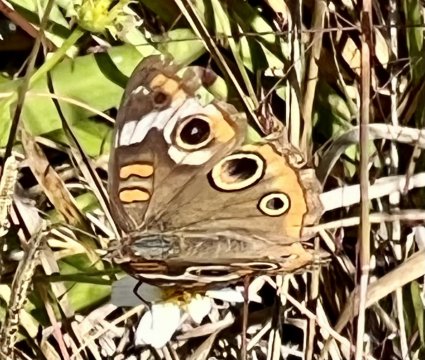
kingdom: Animalia
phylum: Arthropoda
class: Insecta
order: Lepidoptera
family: Nymphalidae
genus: Junonia
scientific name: Junonia coenia
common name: Common Buckeye
